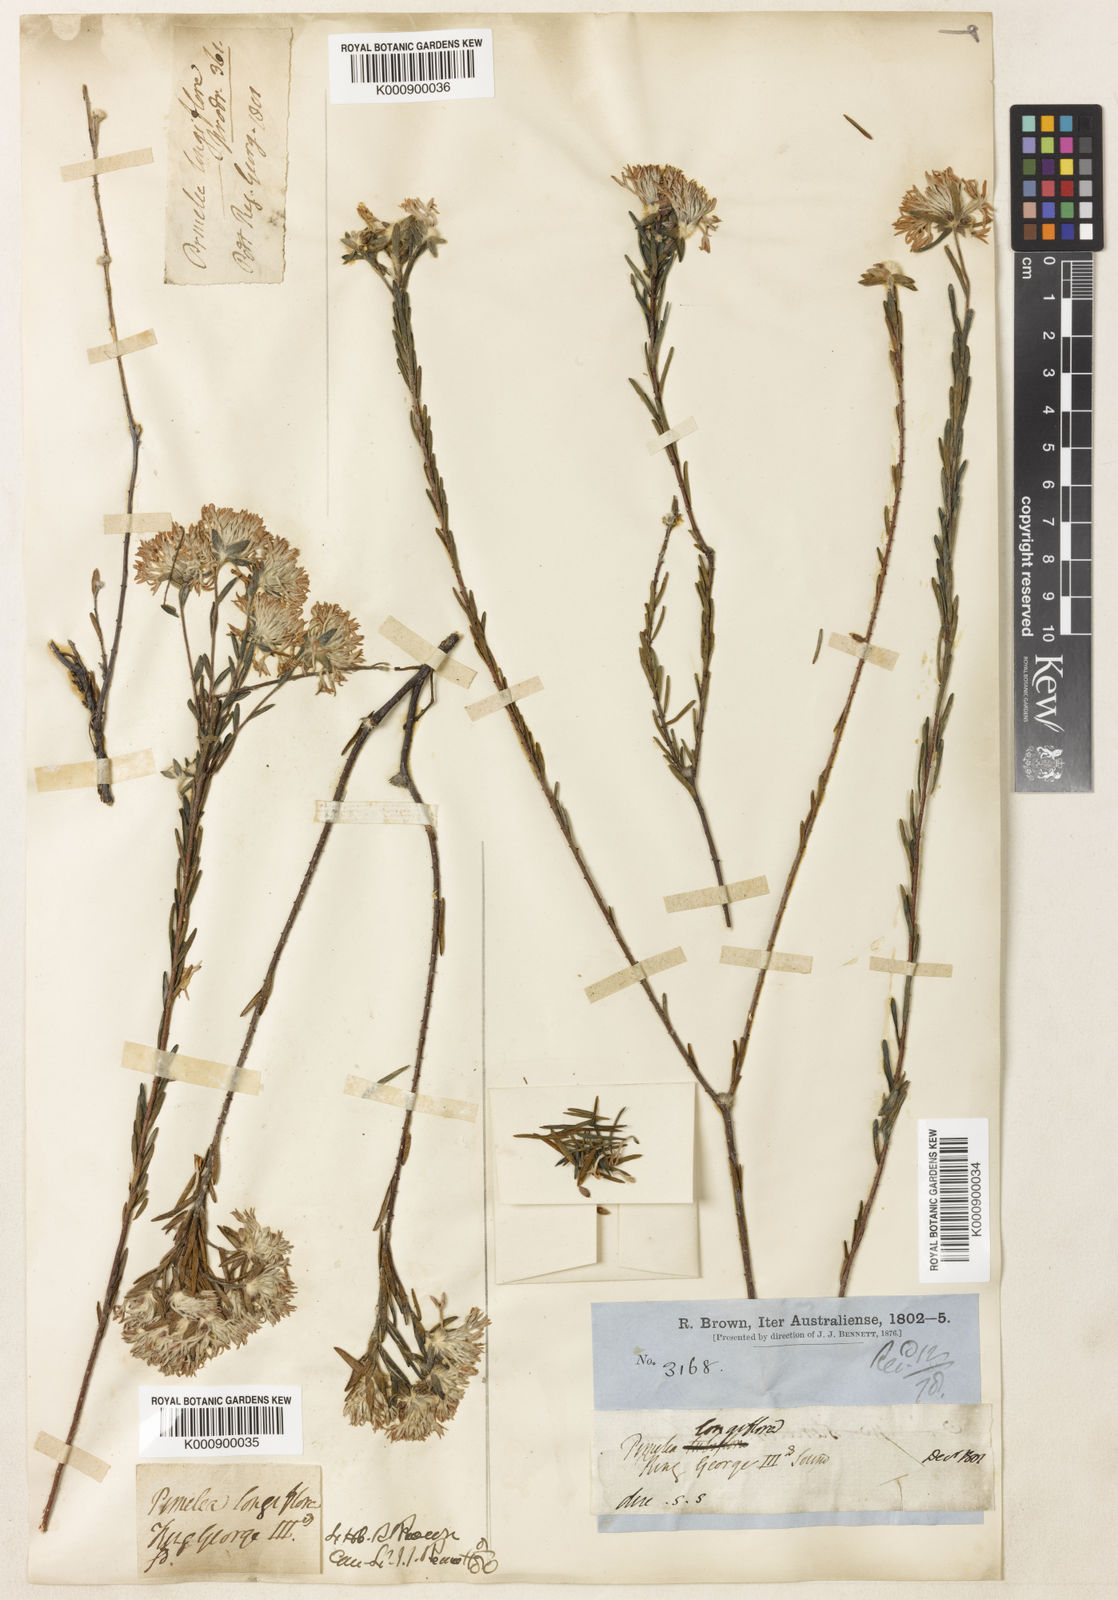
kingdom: Plantae
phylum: Tracheophyta
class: Magnoliopsida
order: Malvales
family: Thymelaeaceae
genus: Pimelea
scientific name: Pimelea longiflora
